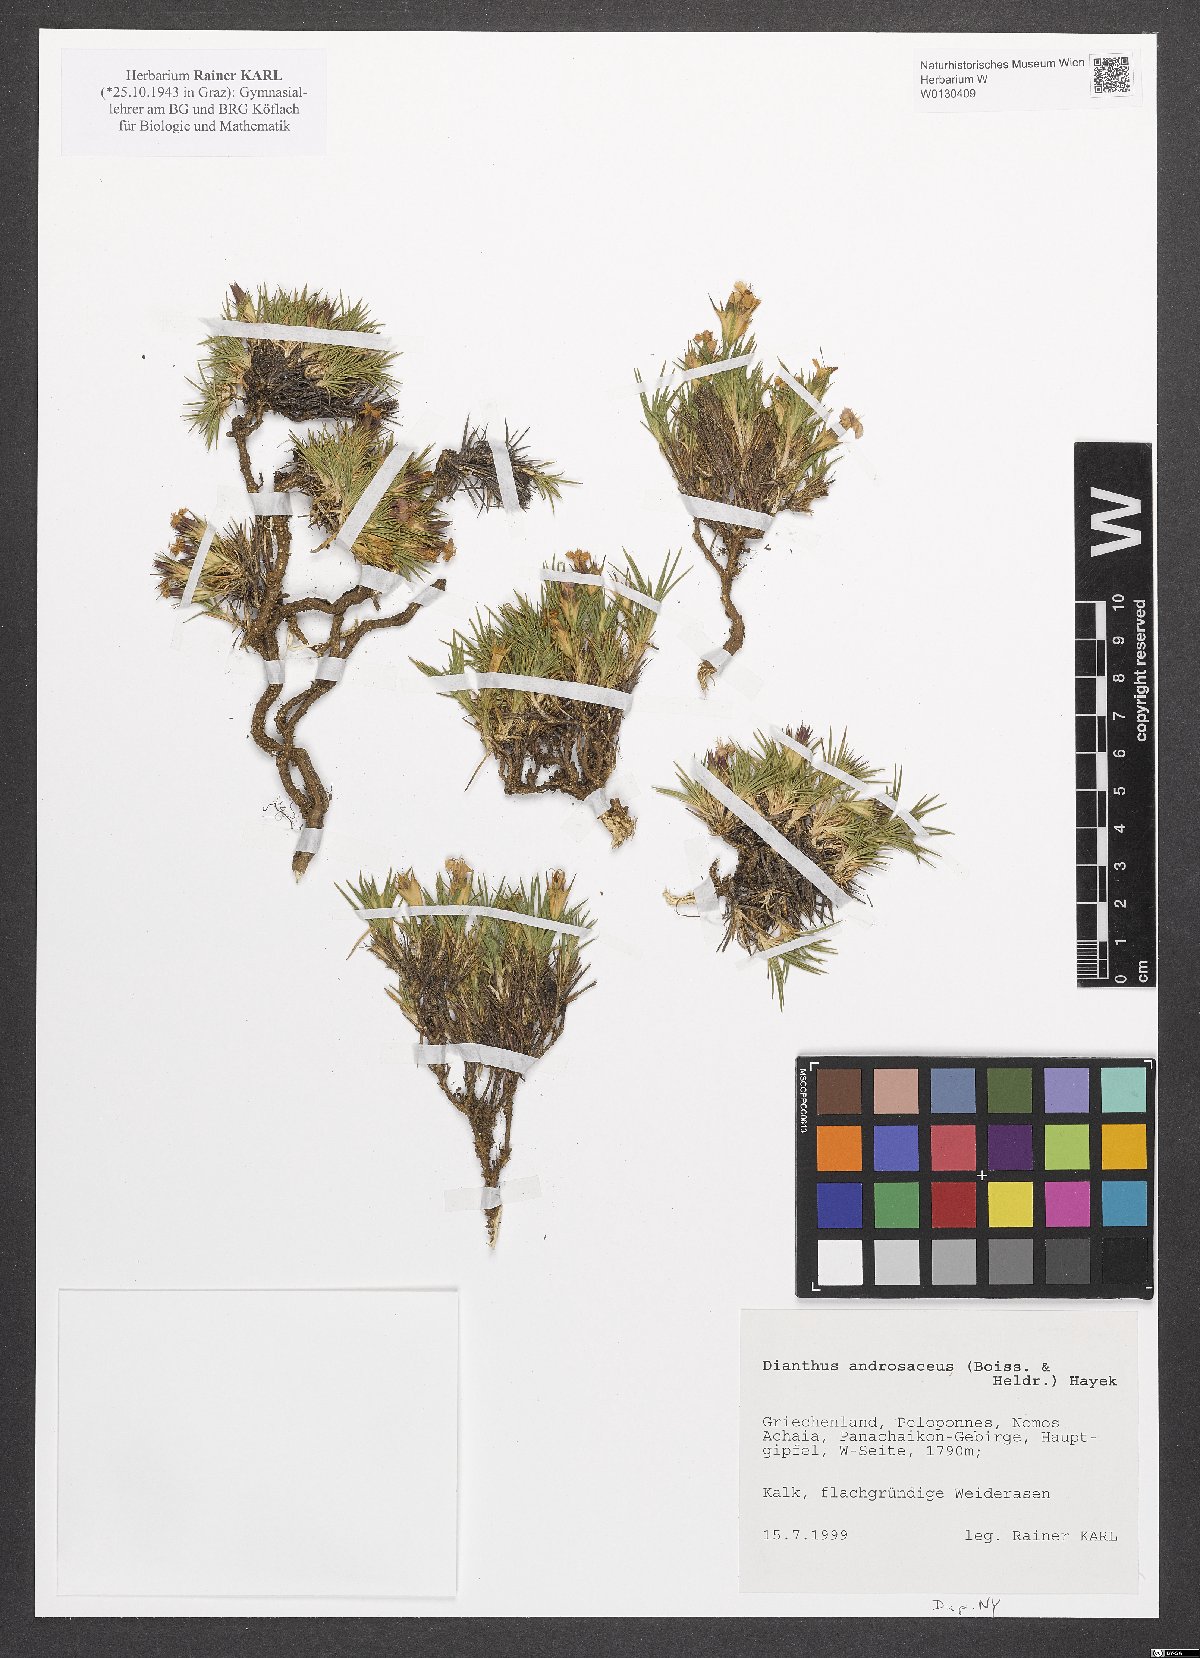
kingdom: Plantae
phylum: Tracheophyta
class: Magnoliopsida
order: Caryophyllales
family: Caryophyllaceae
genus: Dianthus
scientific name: Dianthus androsaceus
